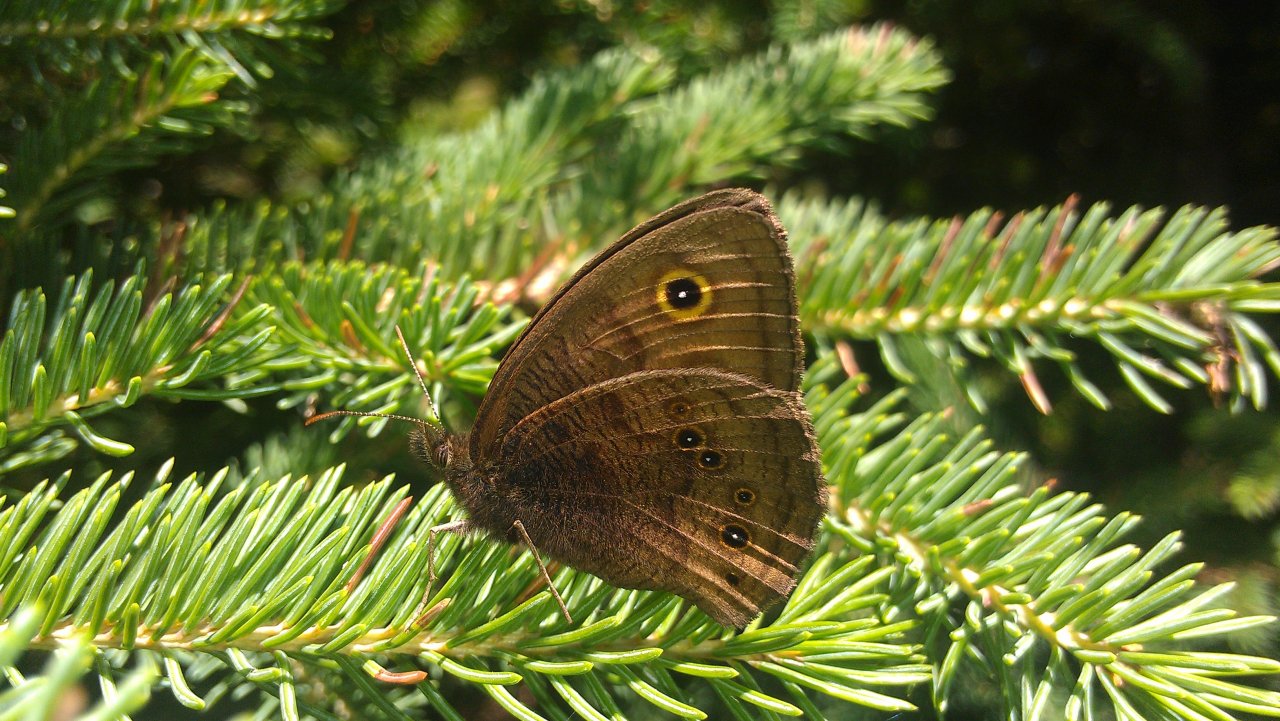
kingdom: Animalia
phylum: Arthropoda
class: Insecta
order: Lepidoptera
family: Nymphalidae
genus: Cercyonis
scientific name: Cercyonis pegala
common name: Common Wood-Nymph
